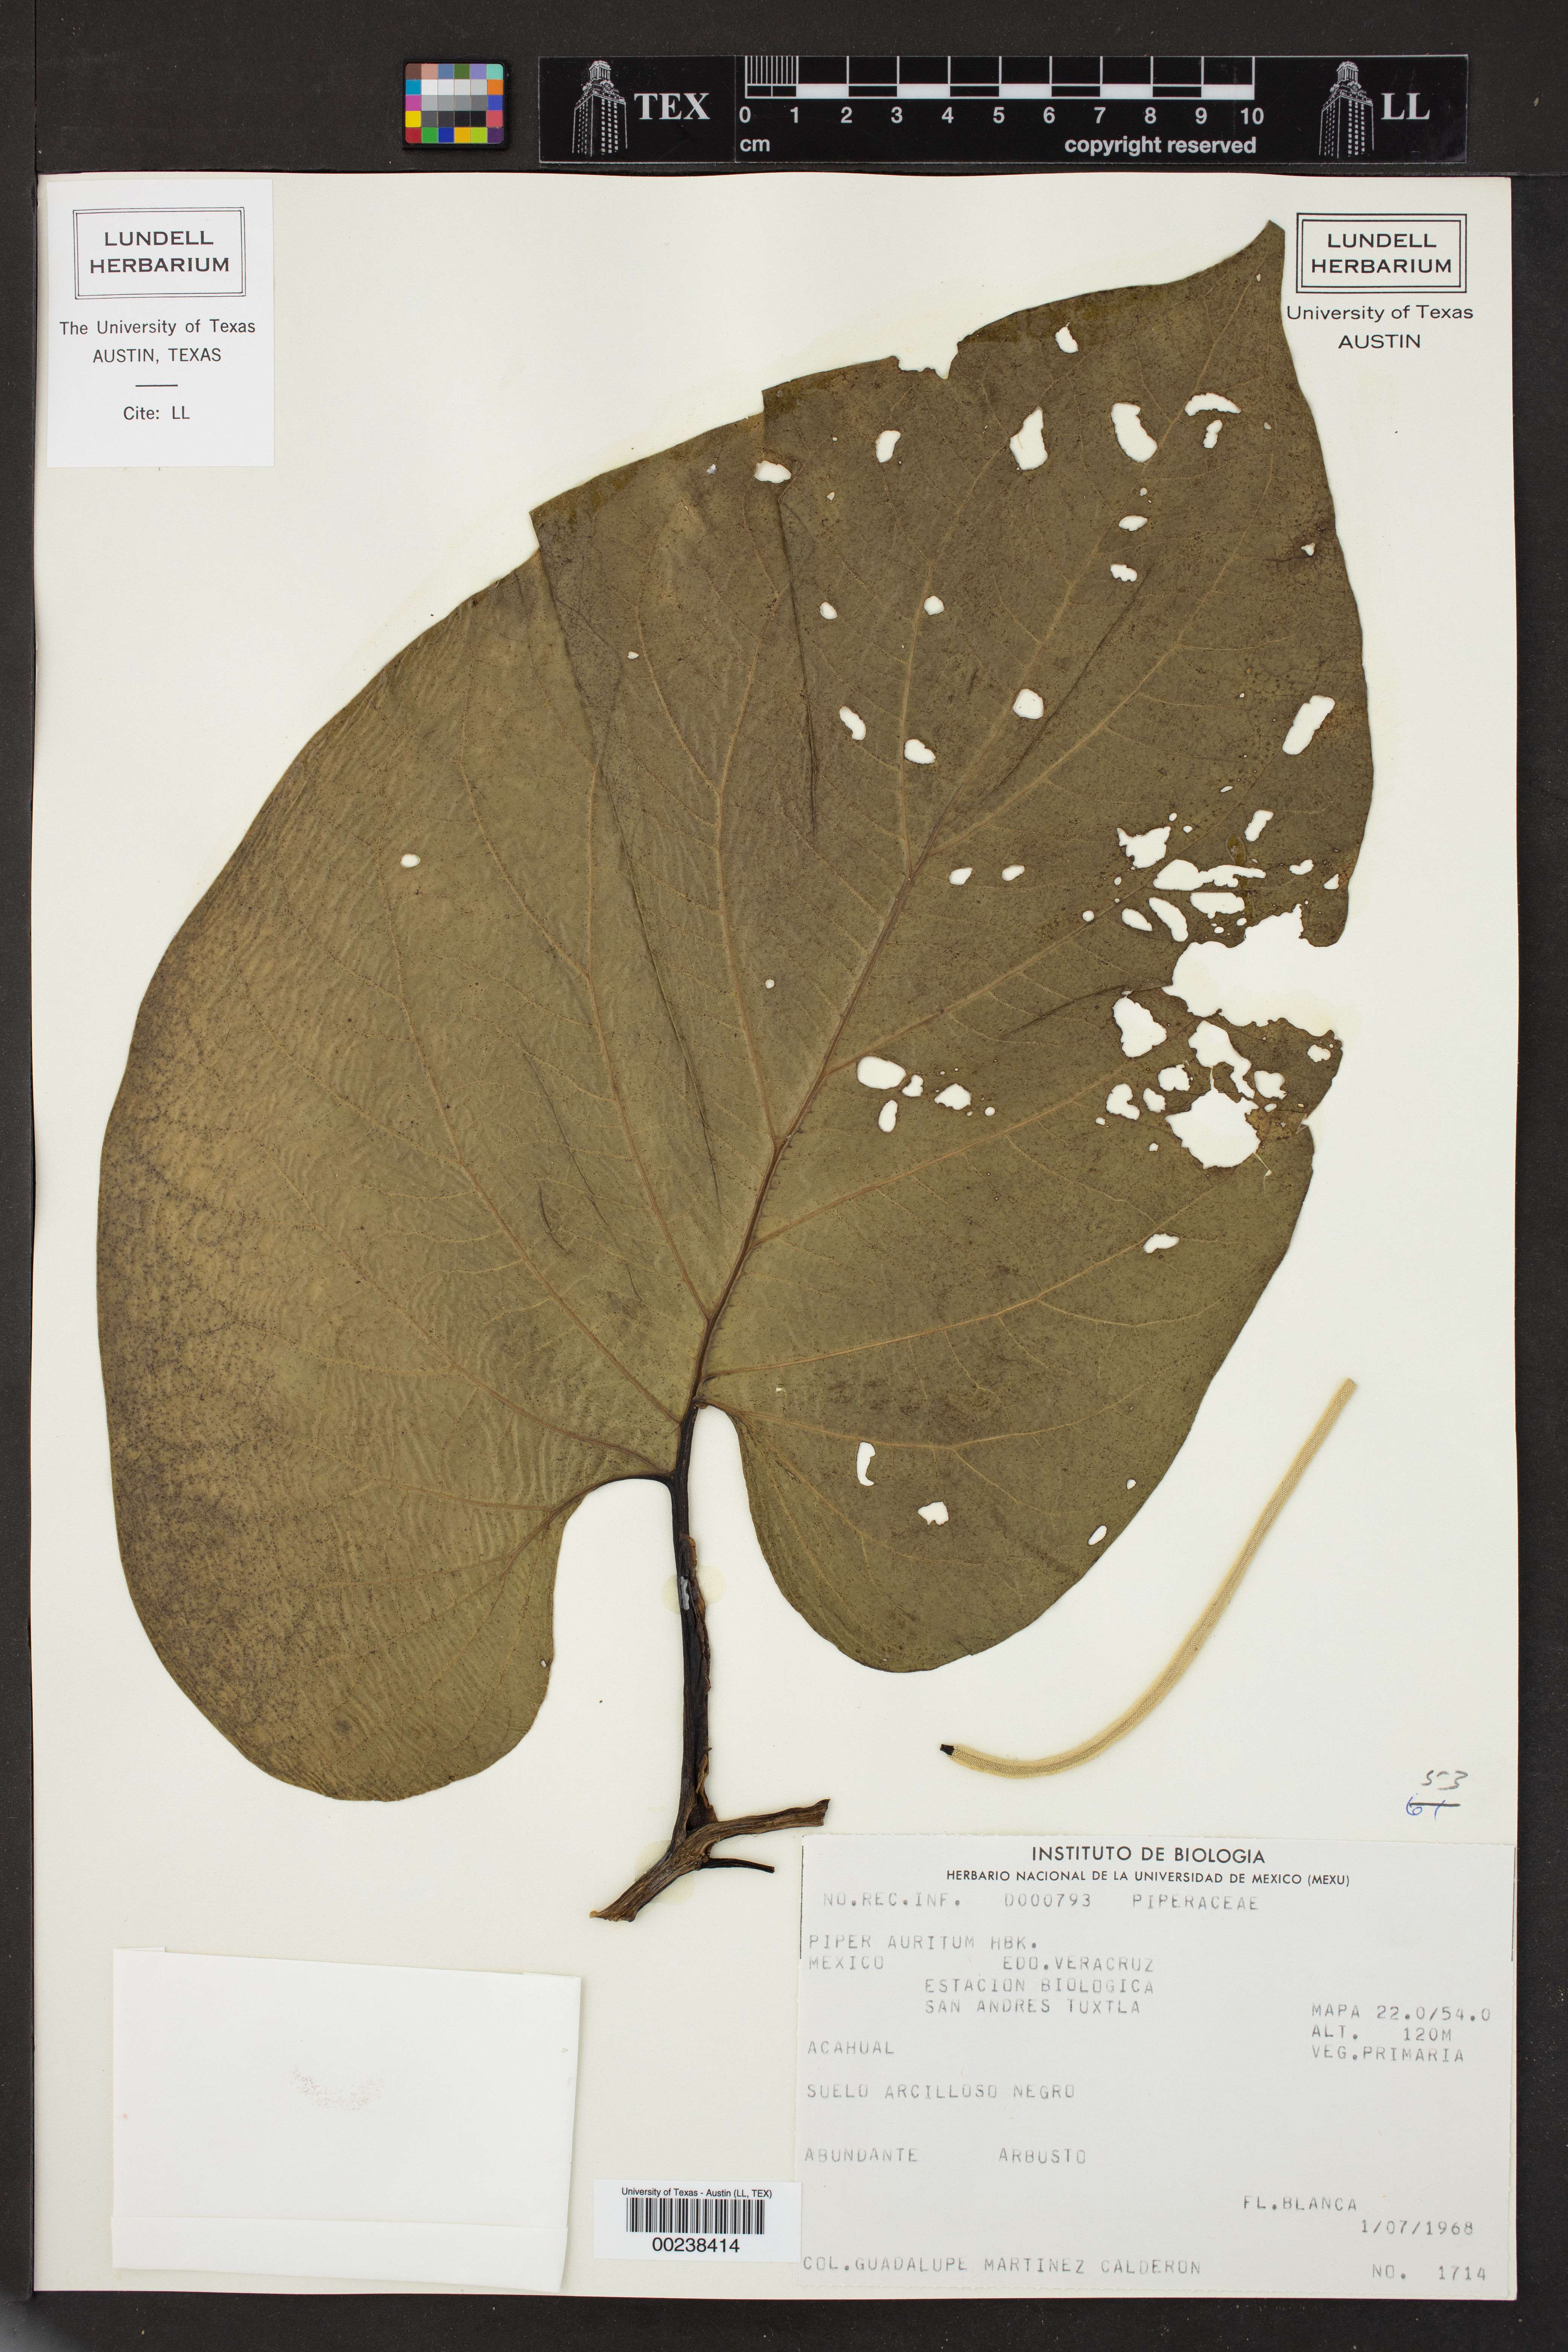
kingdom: Plantae
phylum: Tracheophyta
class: Magnoliopsida
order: Piperales
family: Piperaceae
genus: Piper
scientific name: Piper auritum
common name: Vera cruz pepper
